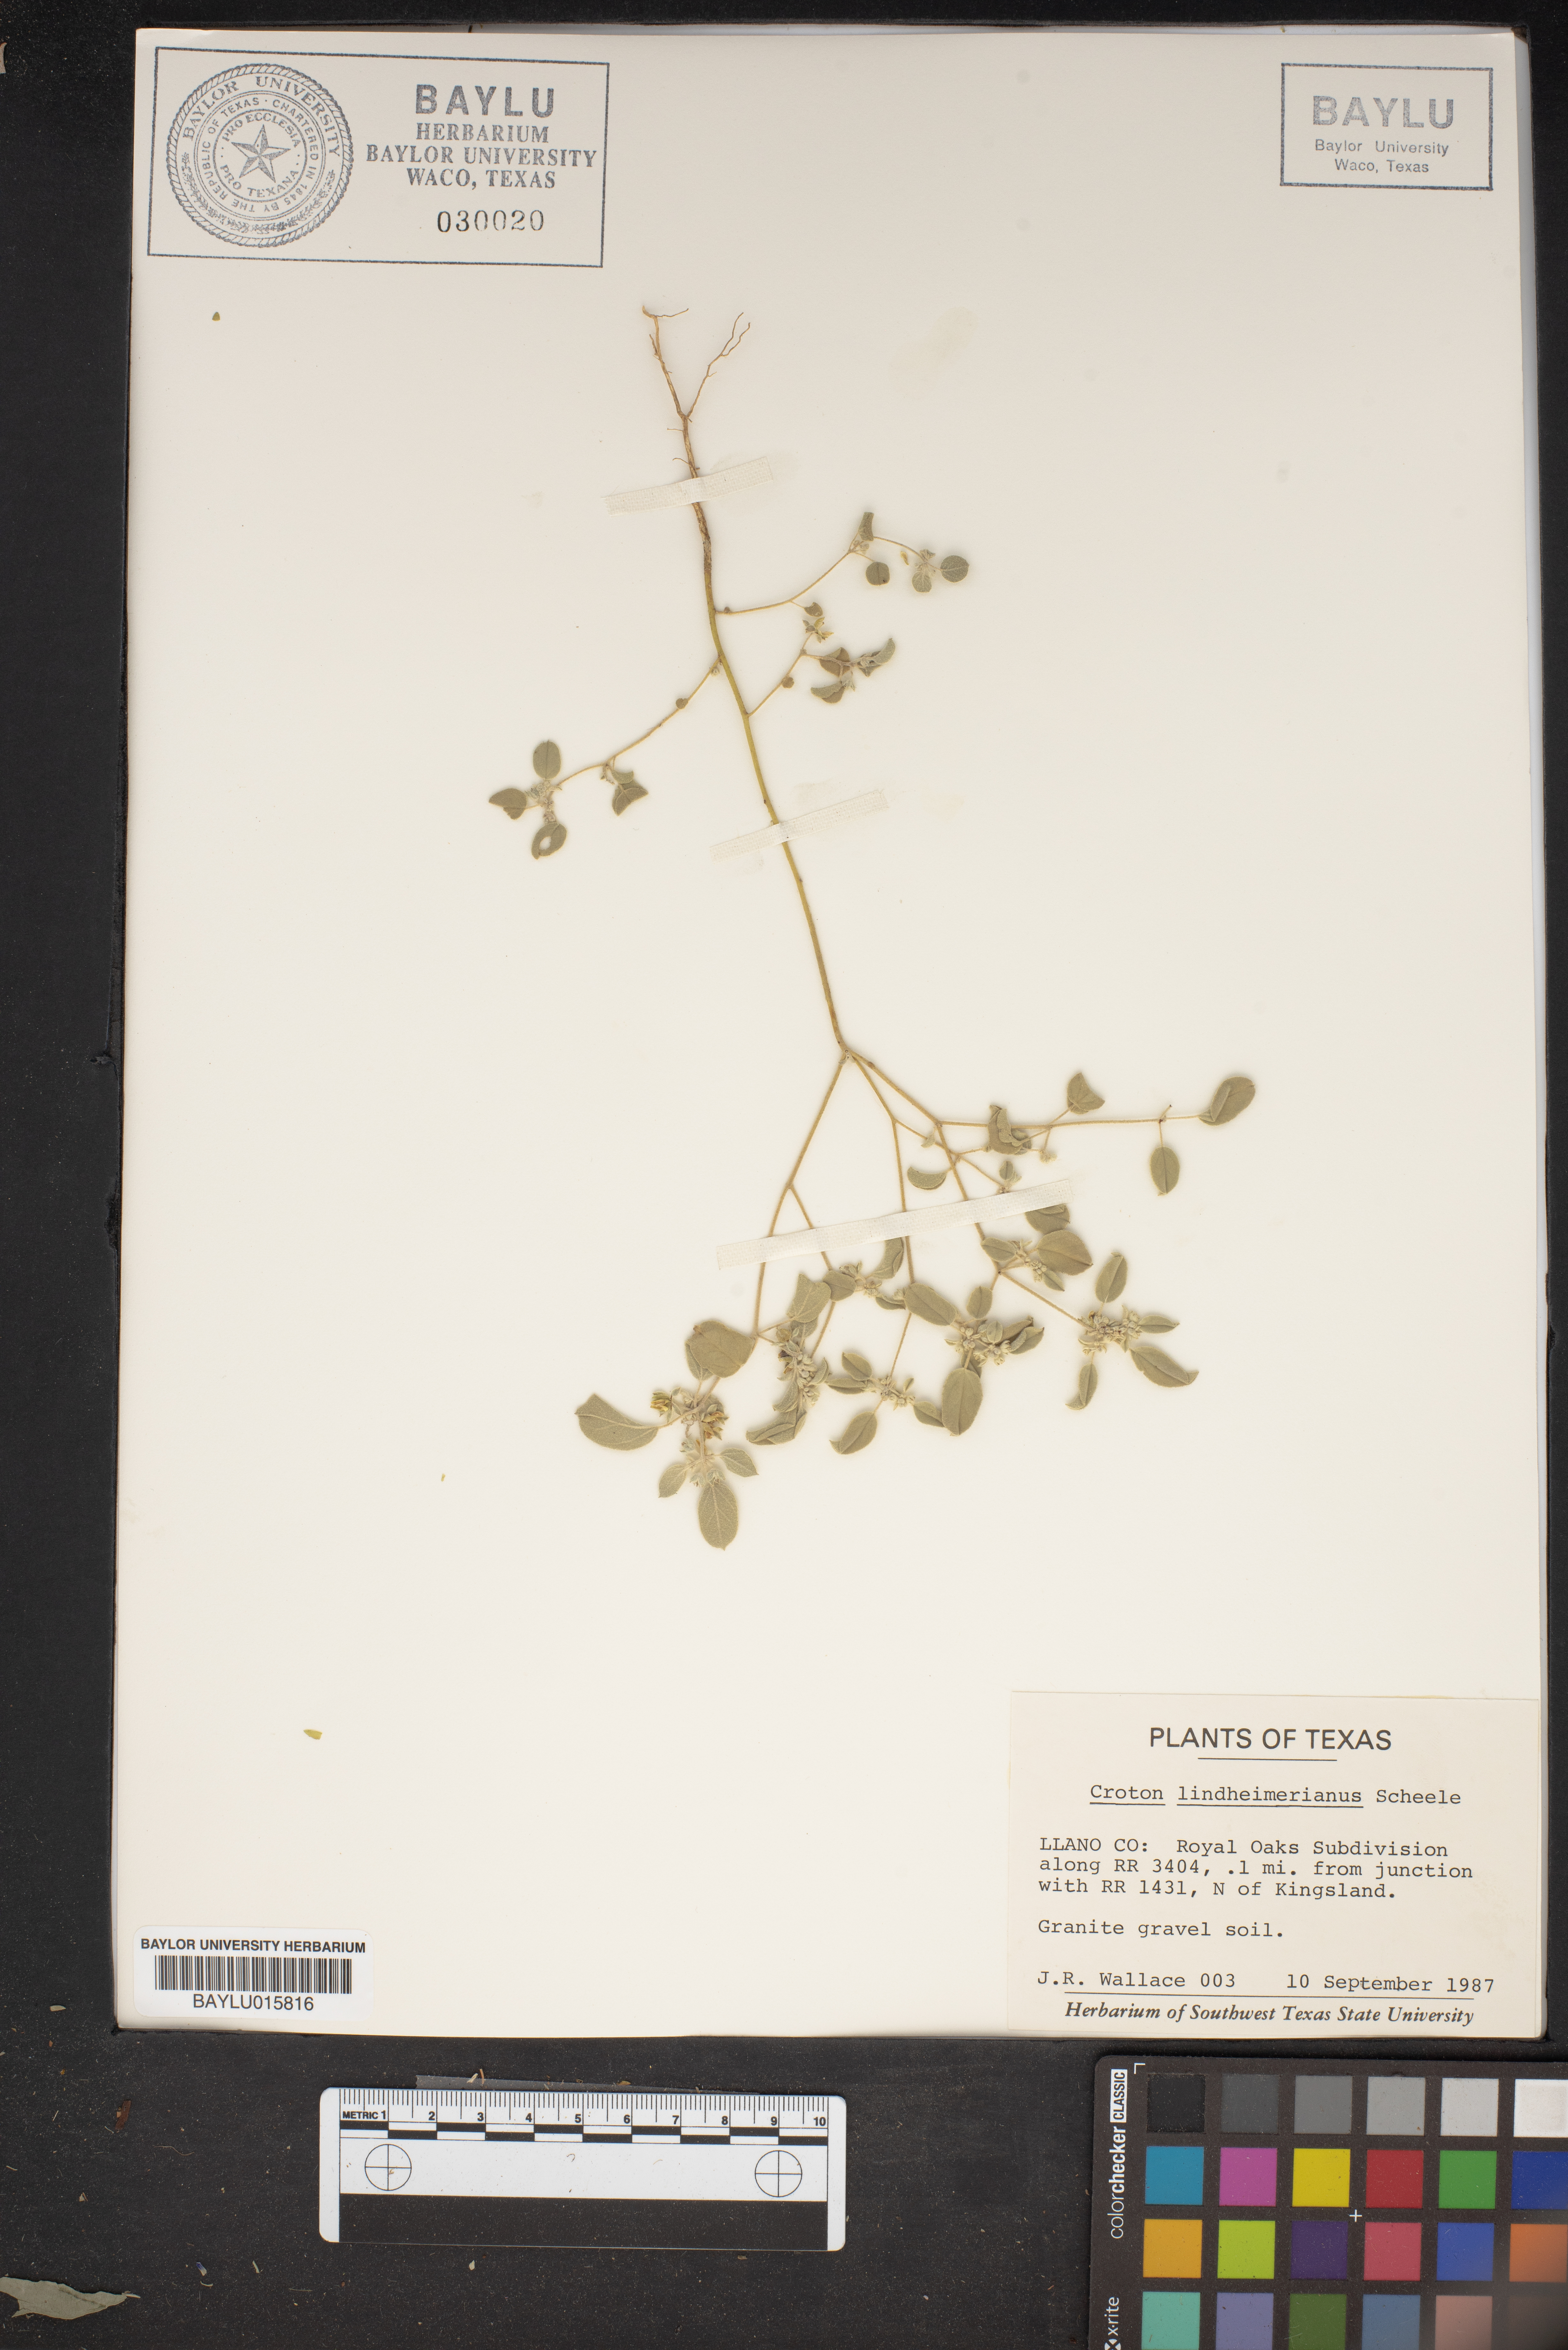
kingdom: Plantae
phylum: Tracheophyta
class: Magnoliopsida
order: Malpighiales
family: Euphorbiaceae
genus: Croton
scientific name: Croton lindheimerianus
